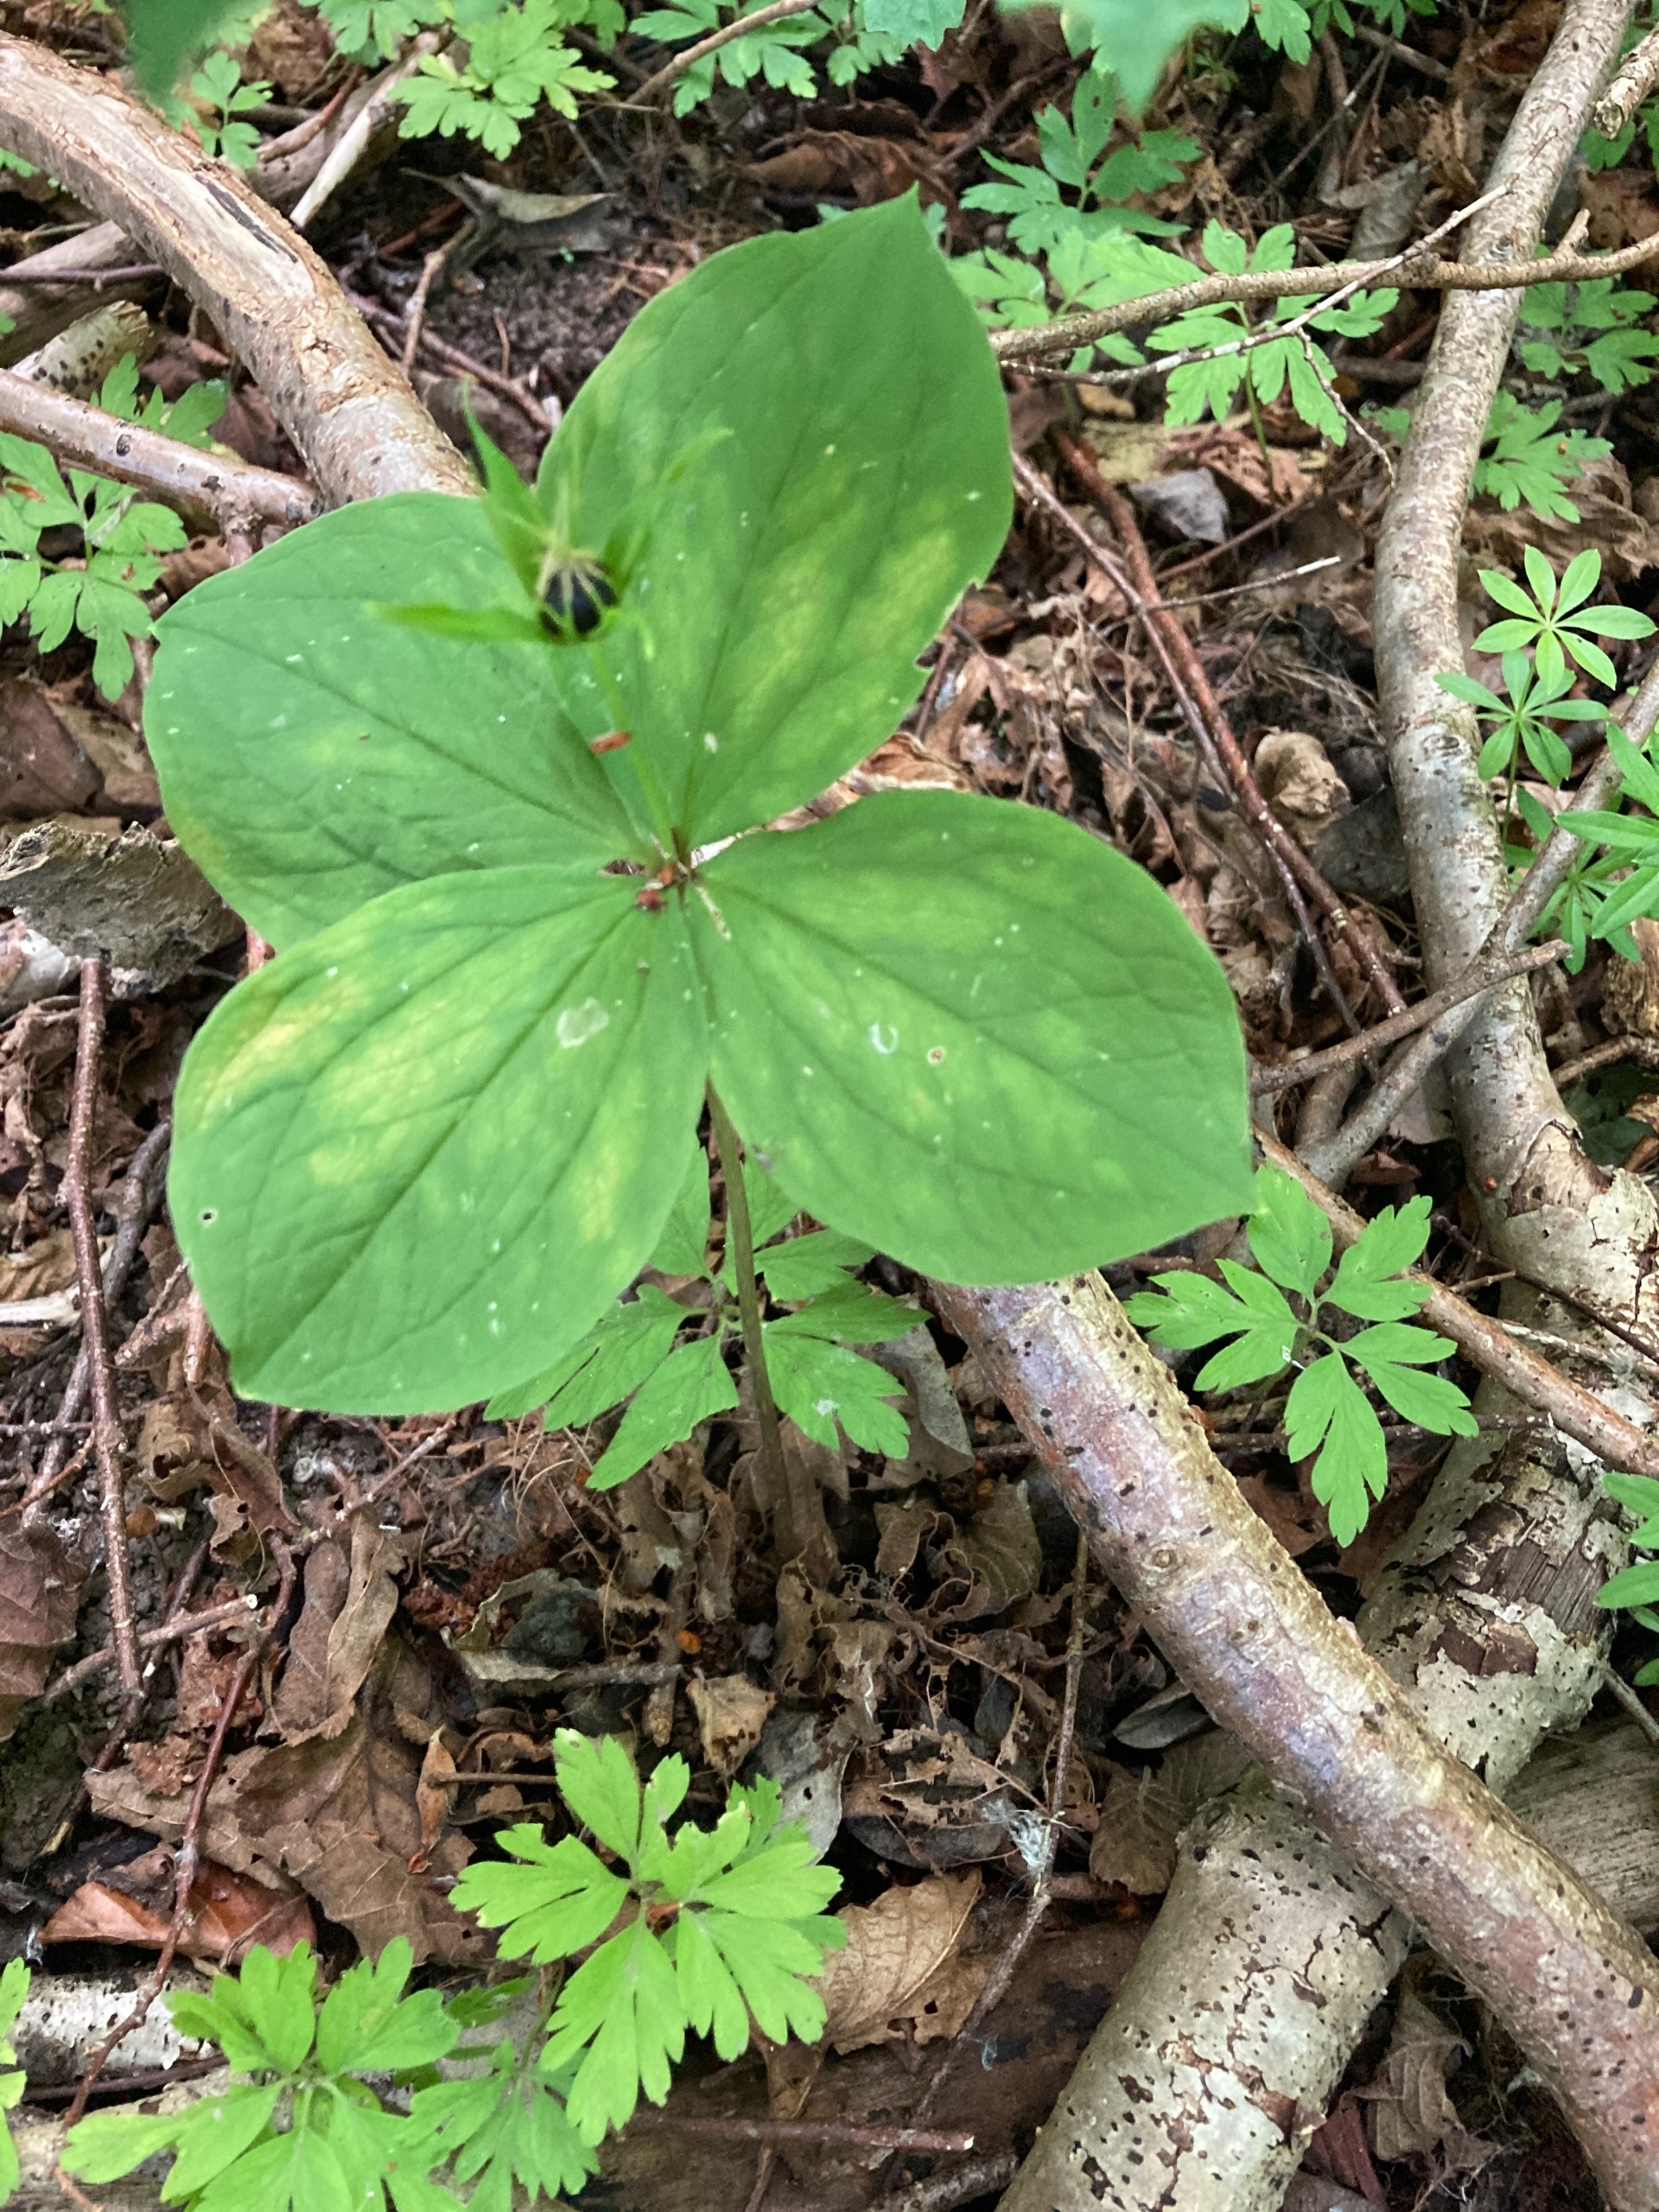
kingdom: Plantae
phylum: Tracheophyta
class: Liliopsida
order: Liliales
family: Melanthiaceae
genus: Paris
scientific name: Paris quadrifolia
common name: Firblad
